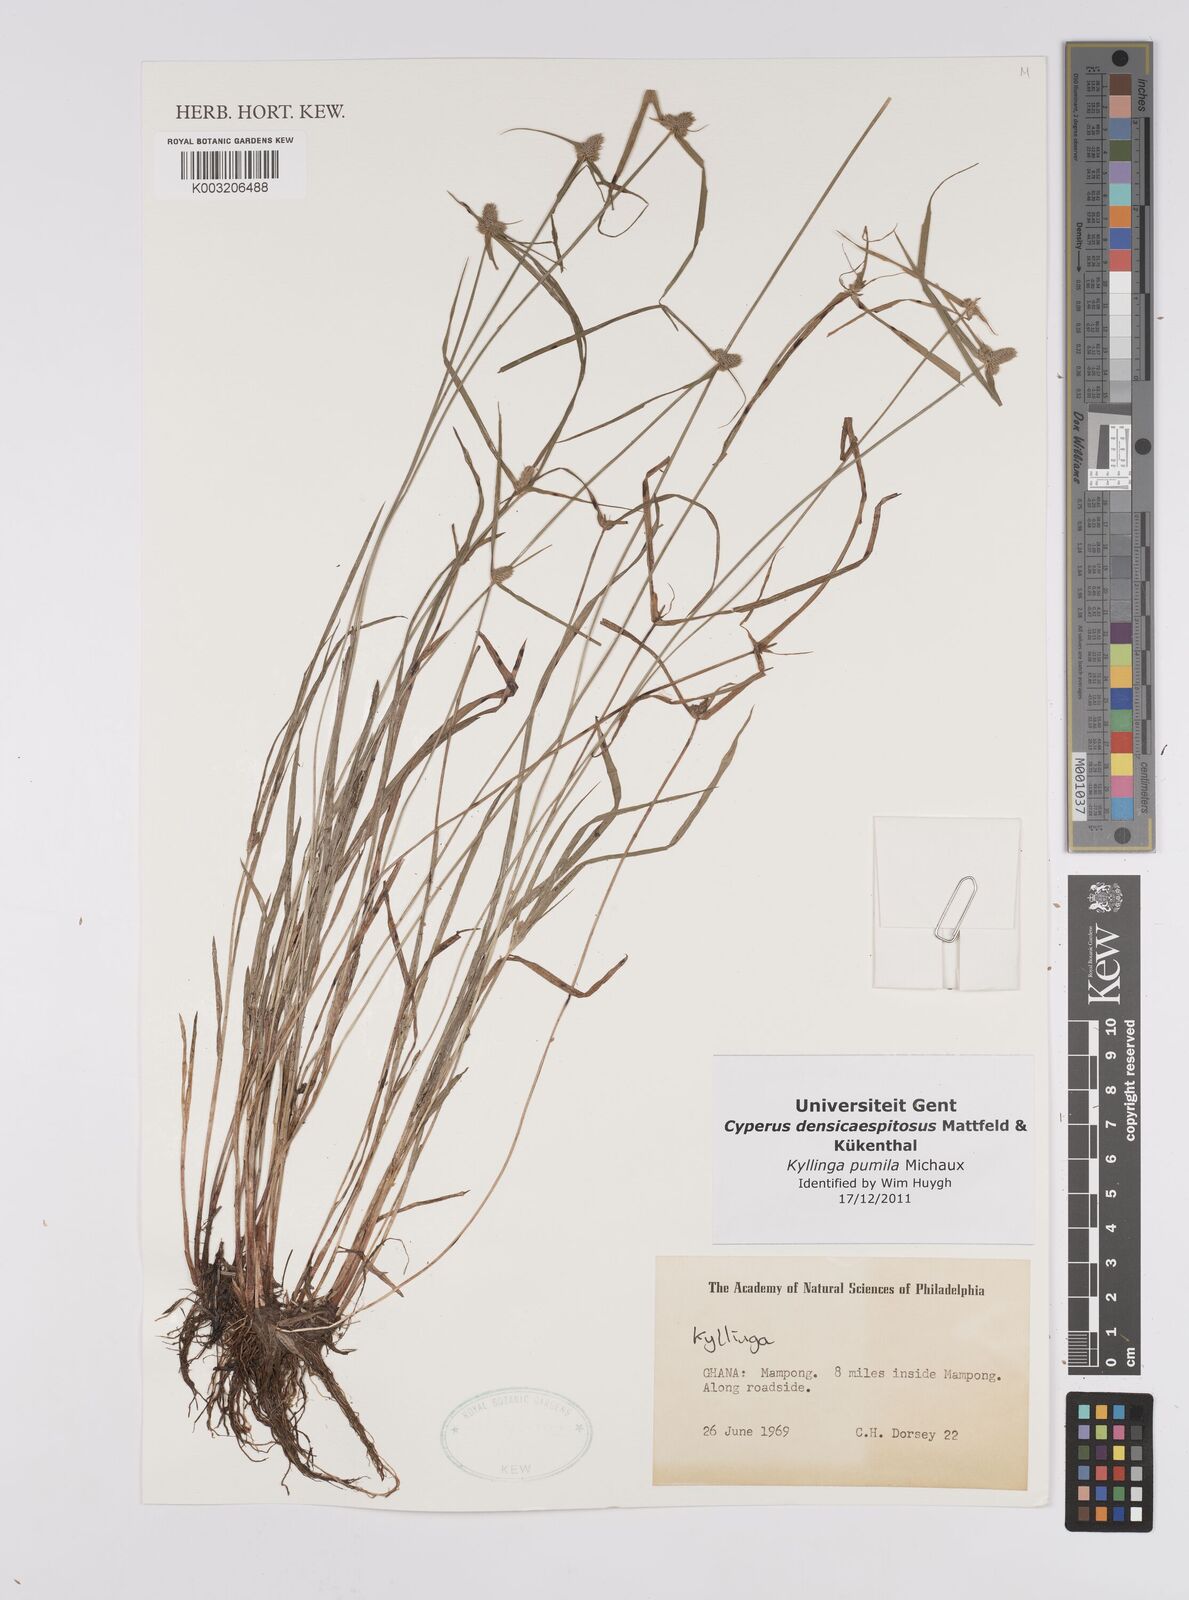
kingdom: Plantae
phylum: Tracheophyta
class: Liliopsida
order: Poales
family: Cyperaceae
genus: Cyperus
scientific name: Cyperus
